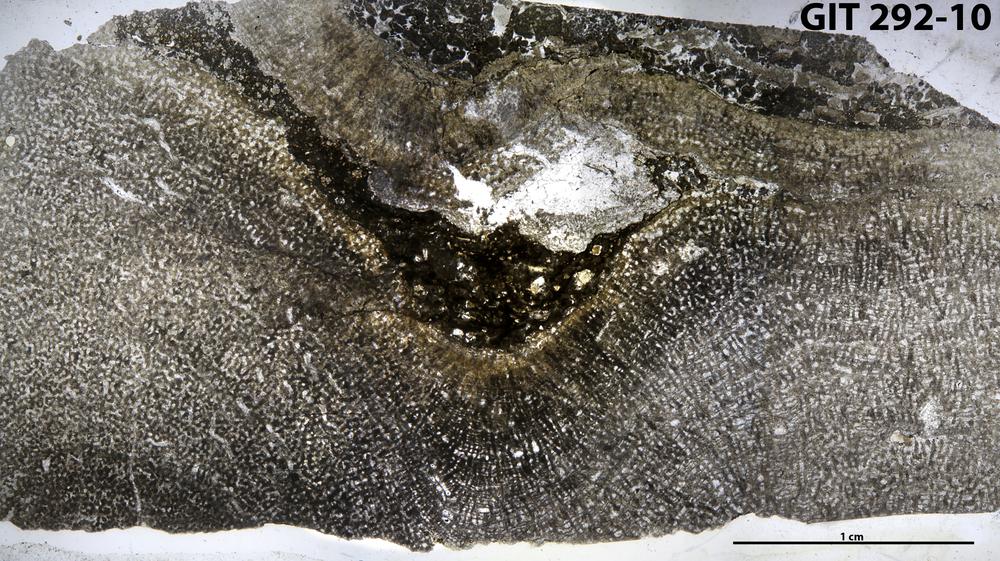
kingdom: Animalia
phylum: Porifera
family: Syringostromellidae
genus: Syringostromella
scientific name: Syringostromella
